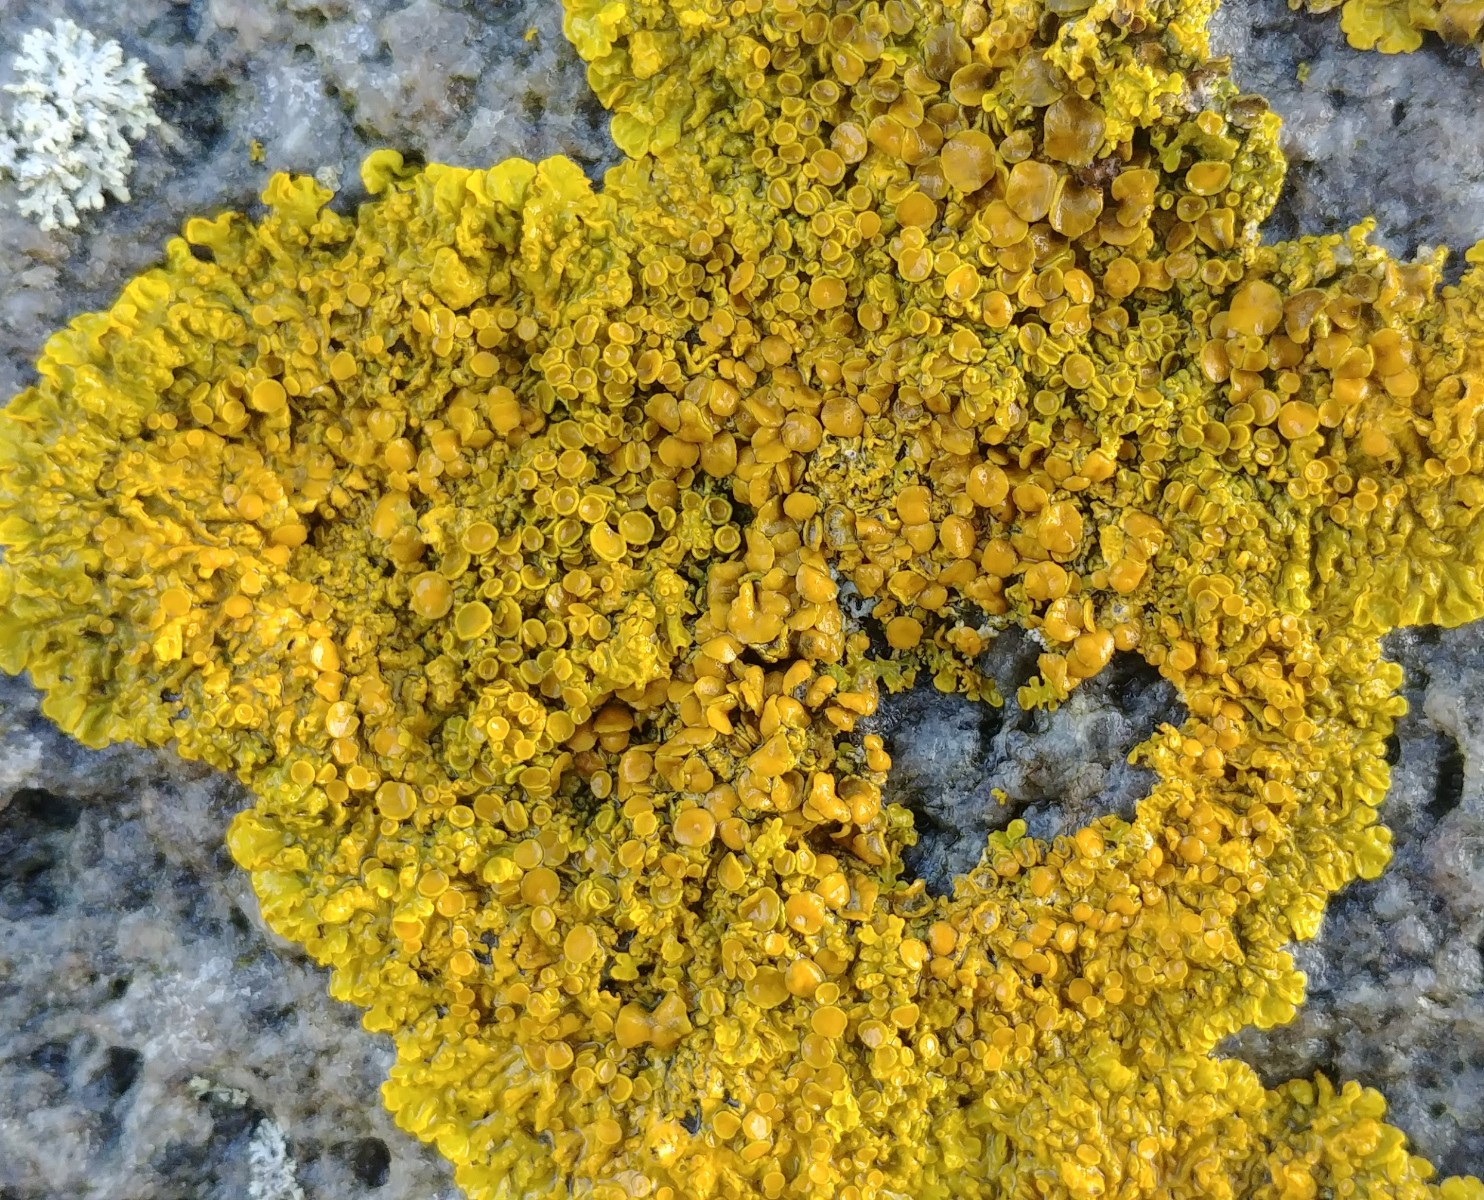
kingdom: Fungi
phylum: Ascomycota
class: Lecanoromycetes
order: Teloschistales
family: Teloschistaceae
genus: Xanthoria
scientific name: Xanthoria parietina
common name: almindelig væggelav
